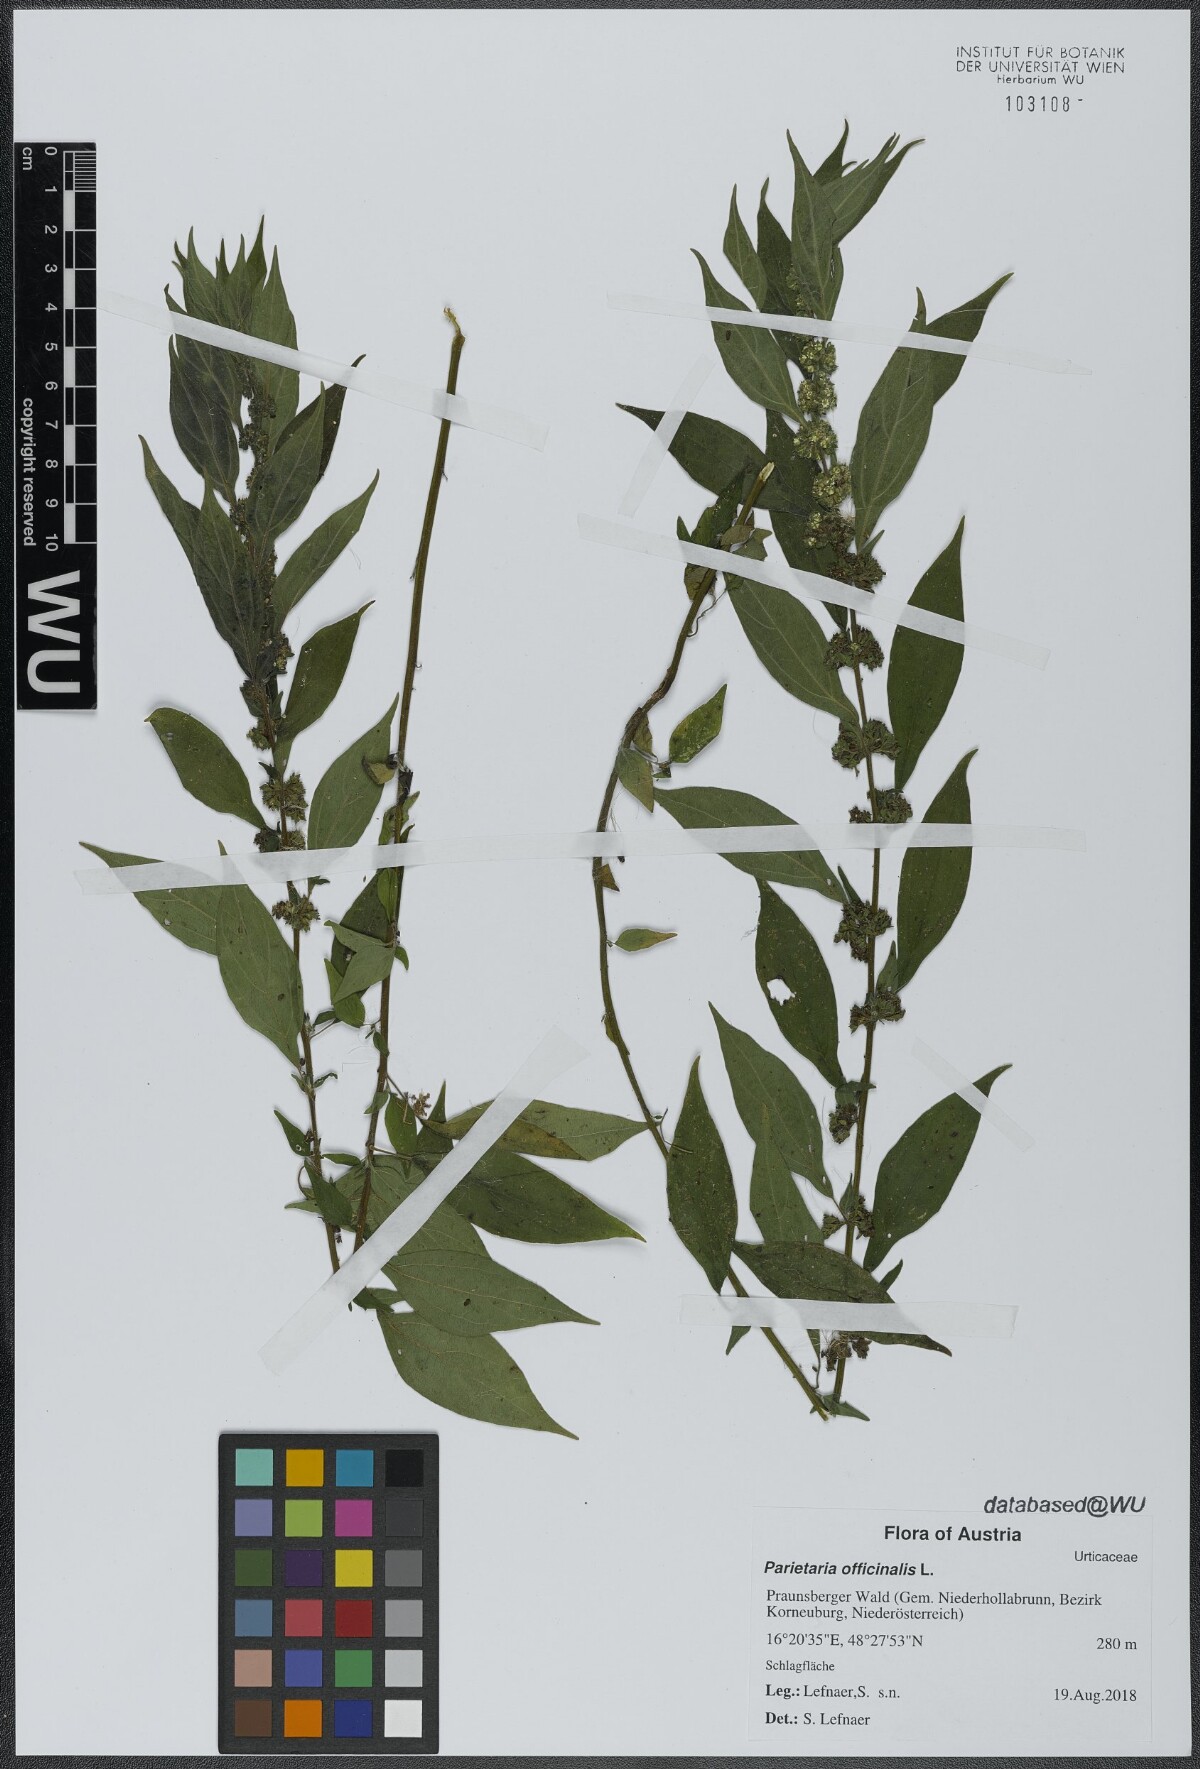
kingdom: Plantae
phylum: Tracheophyta
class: Magnoliopsida
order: Rosales
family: Urticaceae
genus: Parietaria
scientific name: Parietaria officinalis
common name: Eastern pellitory-of-the-wall
